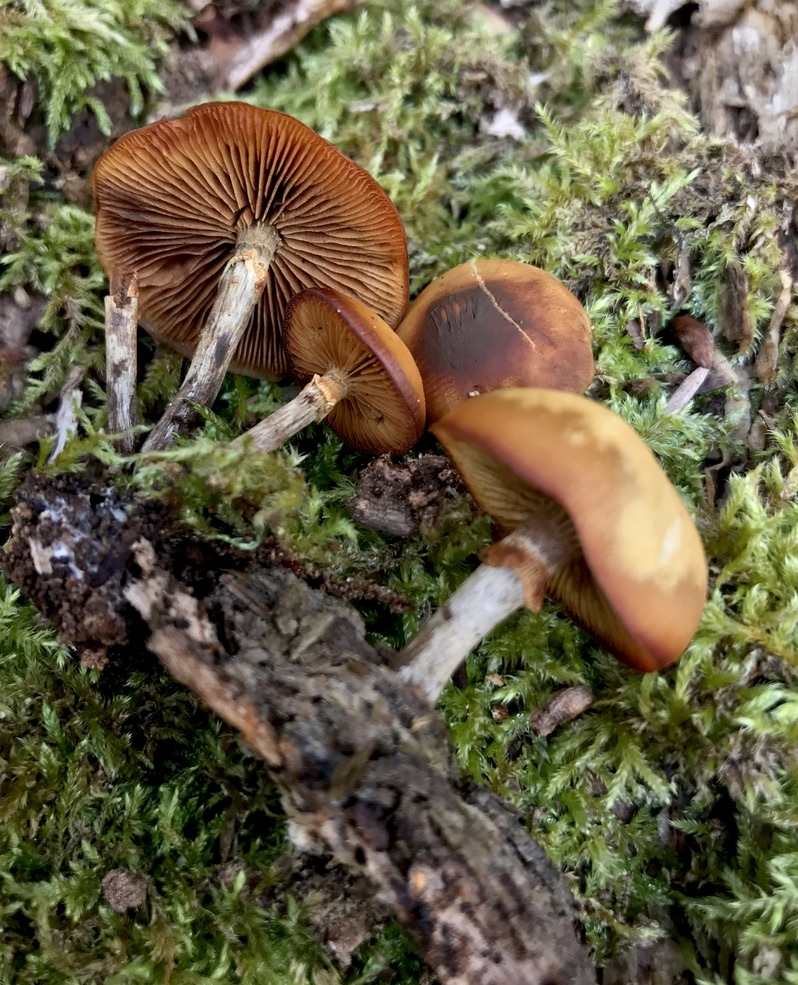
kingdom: Fungi
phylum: Basidiomycota
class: Agaricomycetes
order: Agaricales
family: Hymenogastraceae
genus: Galerina
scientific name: Galerina marginata
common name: randbæltet hjelmhat
